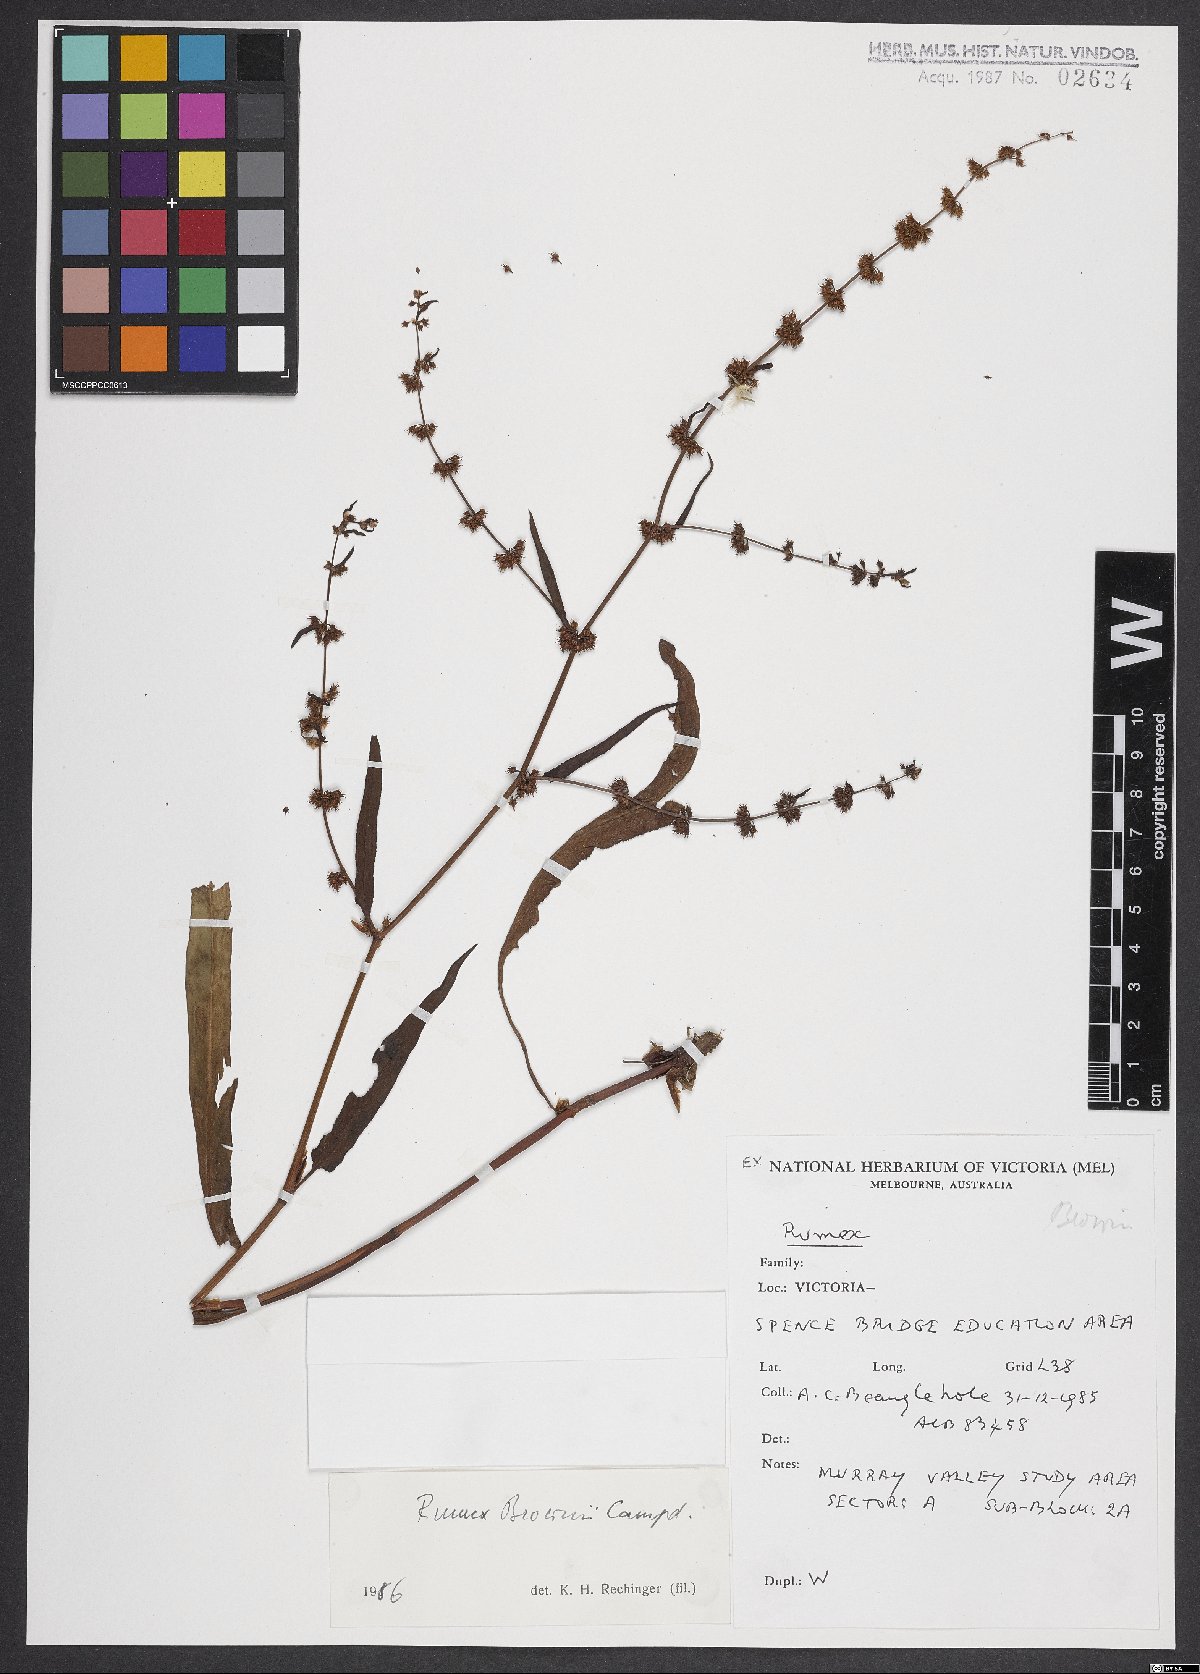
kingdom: Plantae
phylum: Tracheophyta
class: Magnoliopsida
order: Caryophyllales
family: Polygonaceae
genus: Rumex
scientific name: Rumex brownii
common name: Hooked dock
